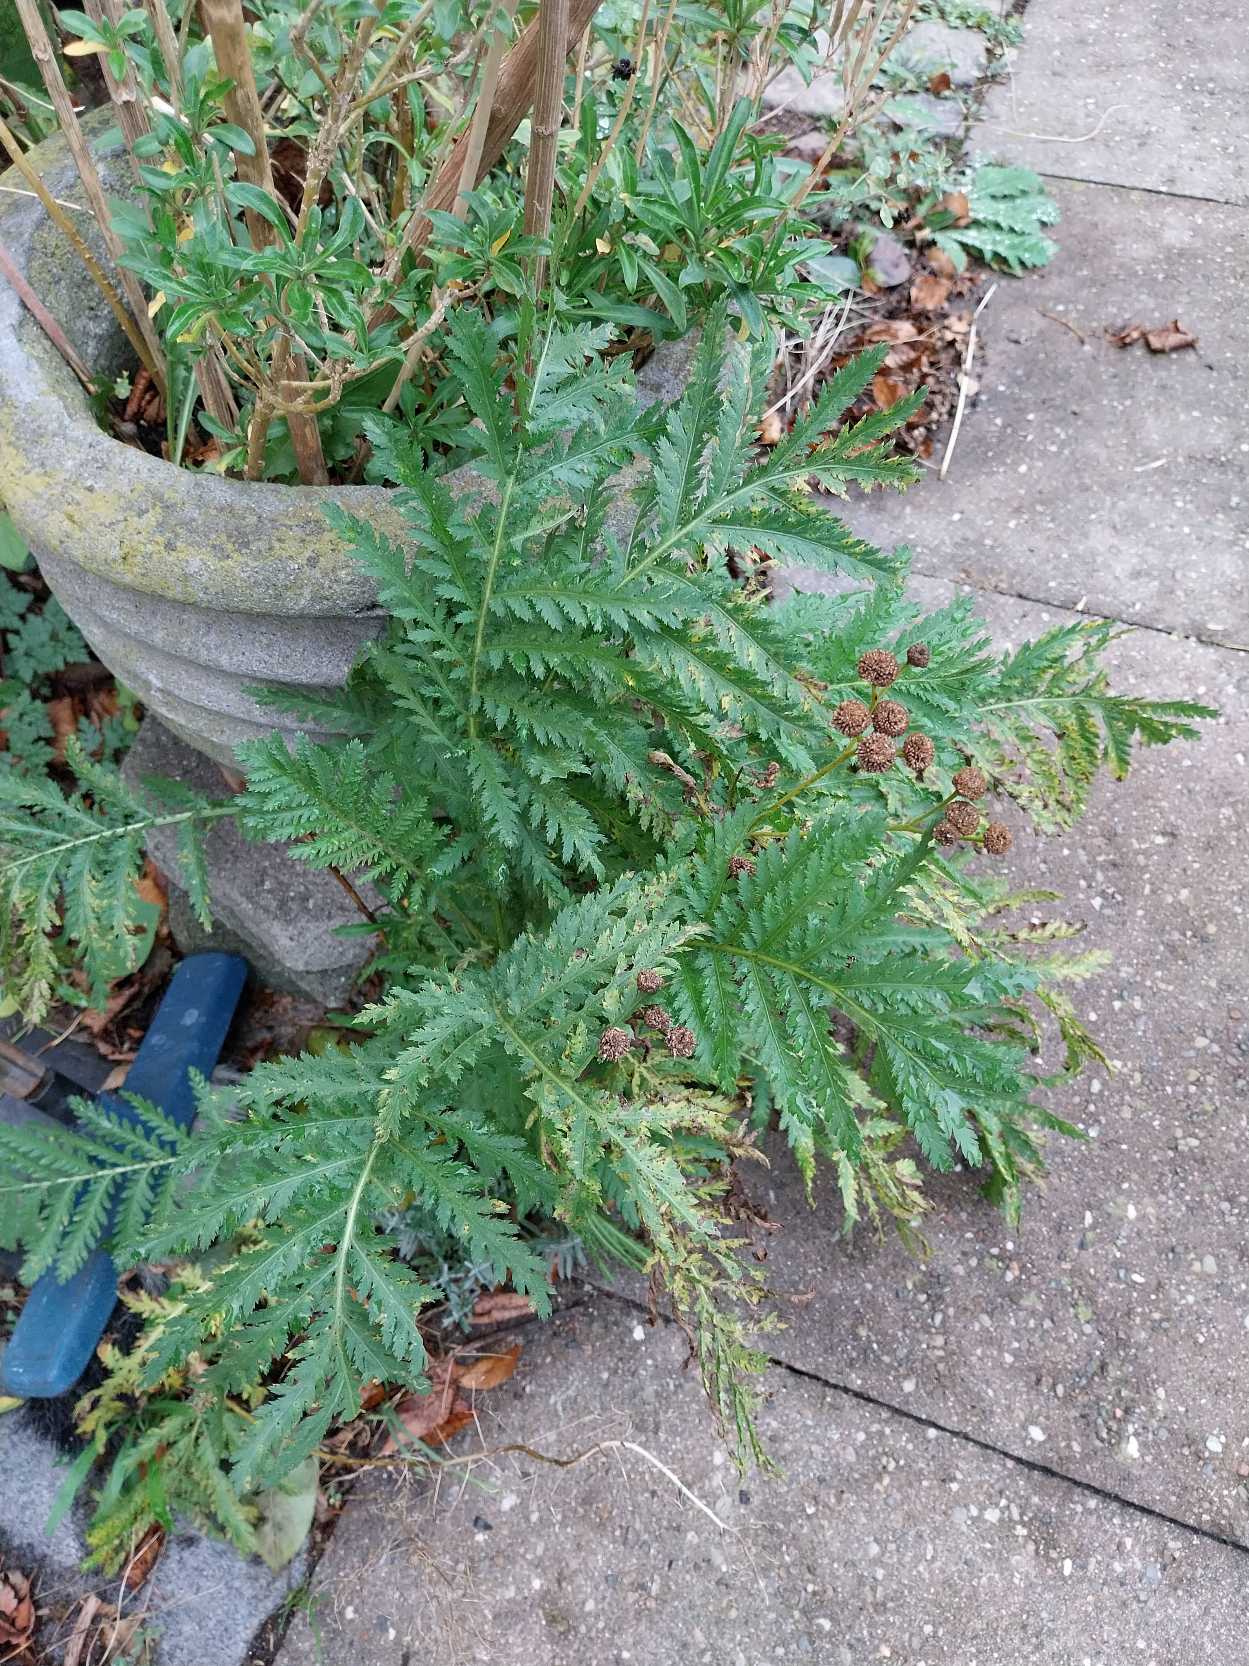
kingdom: Plantae
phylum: Tracheophyta
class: Magnoliopsida
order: Asterales
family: Asteraceae
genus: Tanacetum
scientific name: Tanacetum vulgare
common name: Rejnfan
